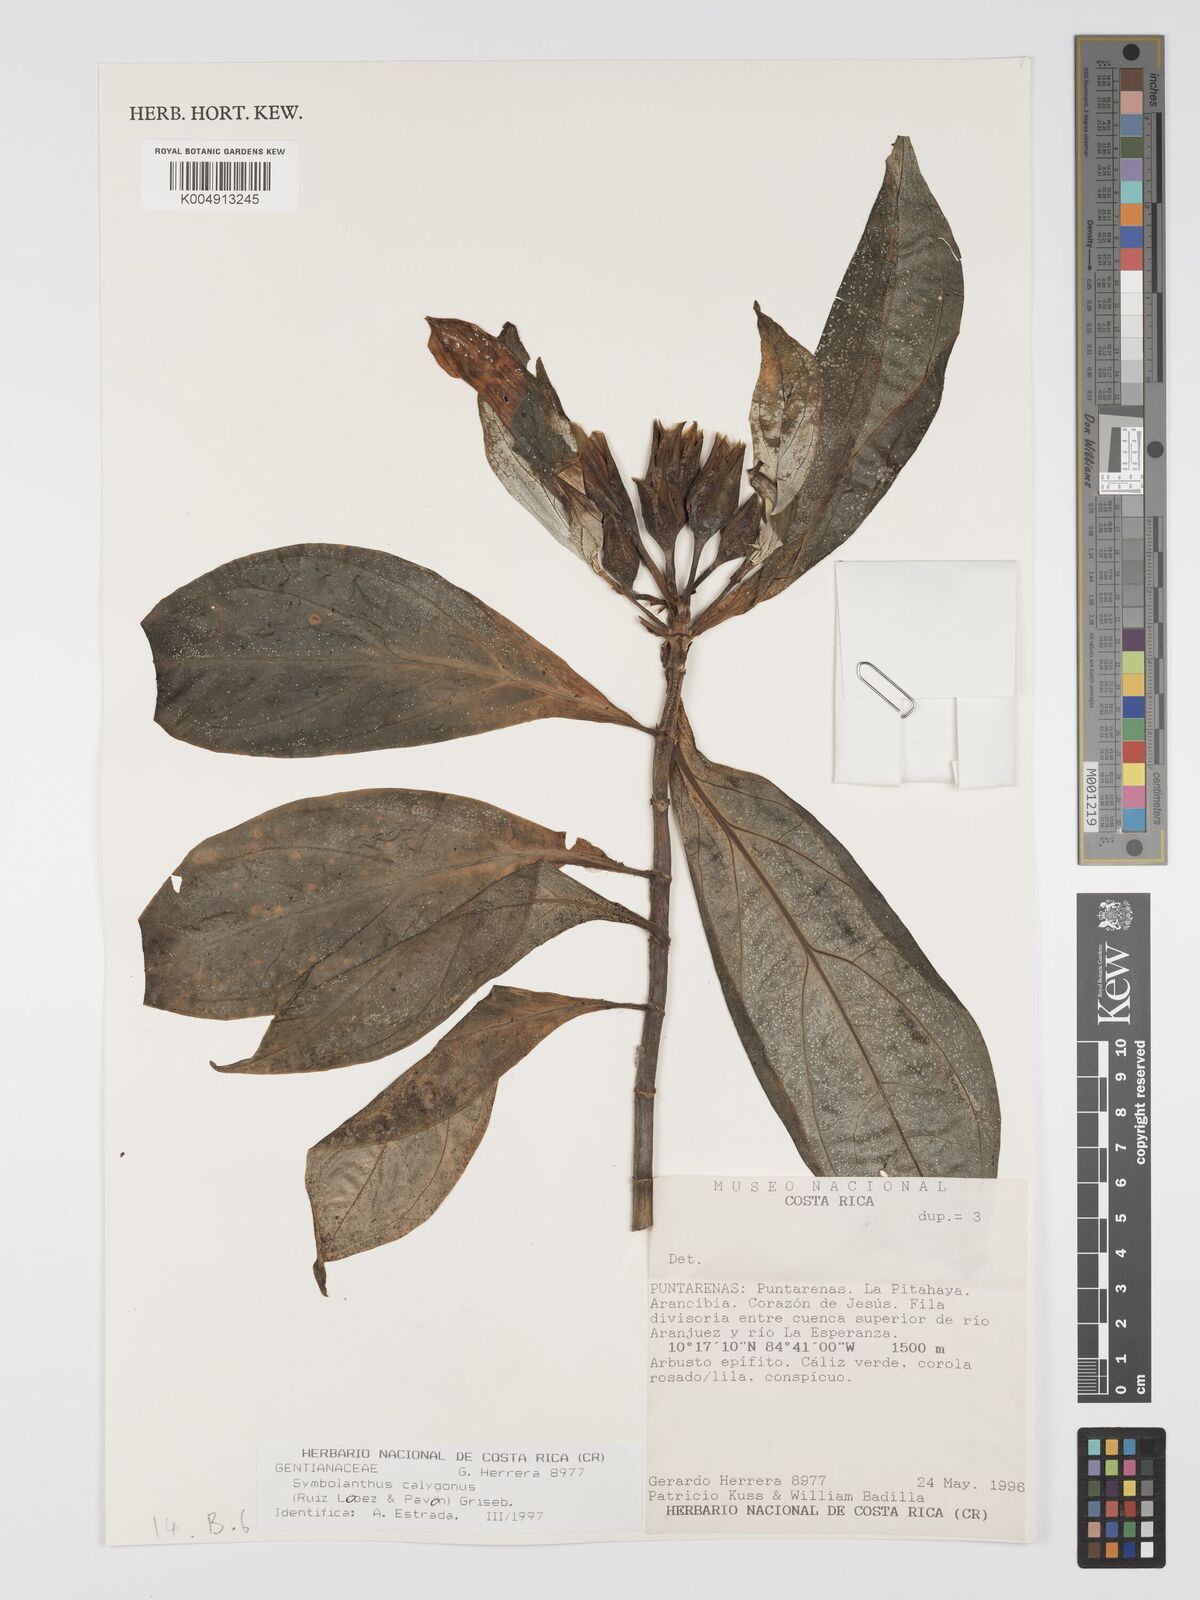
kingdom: Plantae
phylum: Tracheophyta
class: Magnoliopsida
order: Gentianales
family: Gentianaceae
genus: Symbolanthus
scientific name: Symbolanthus calygonus
